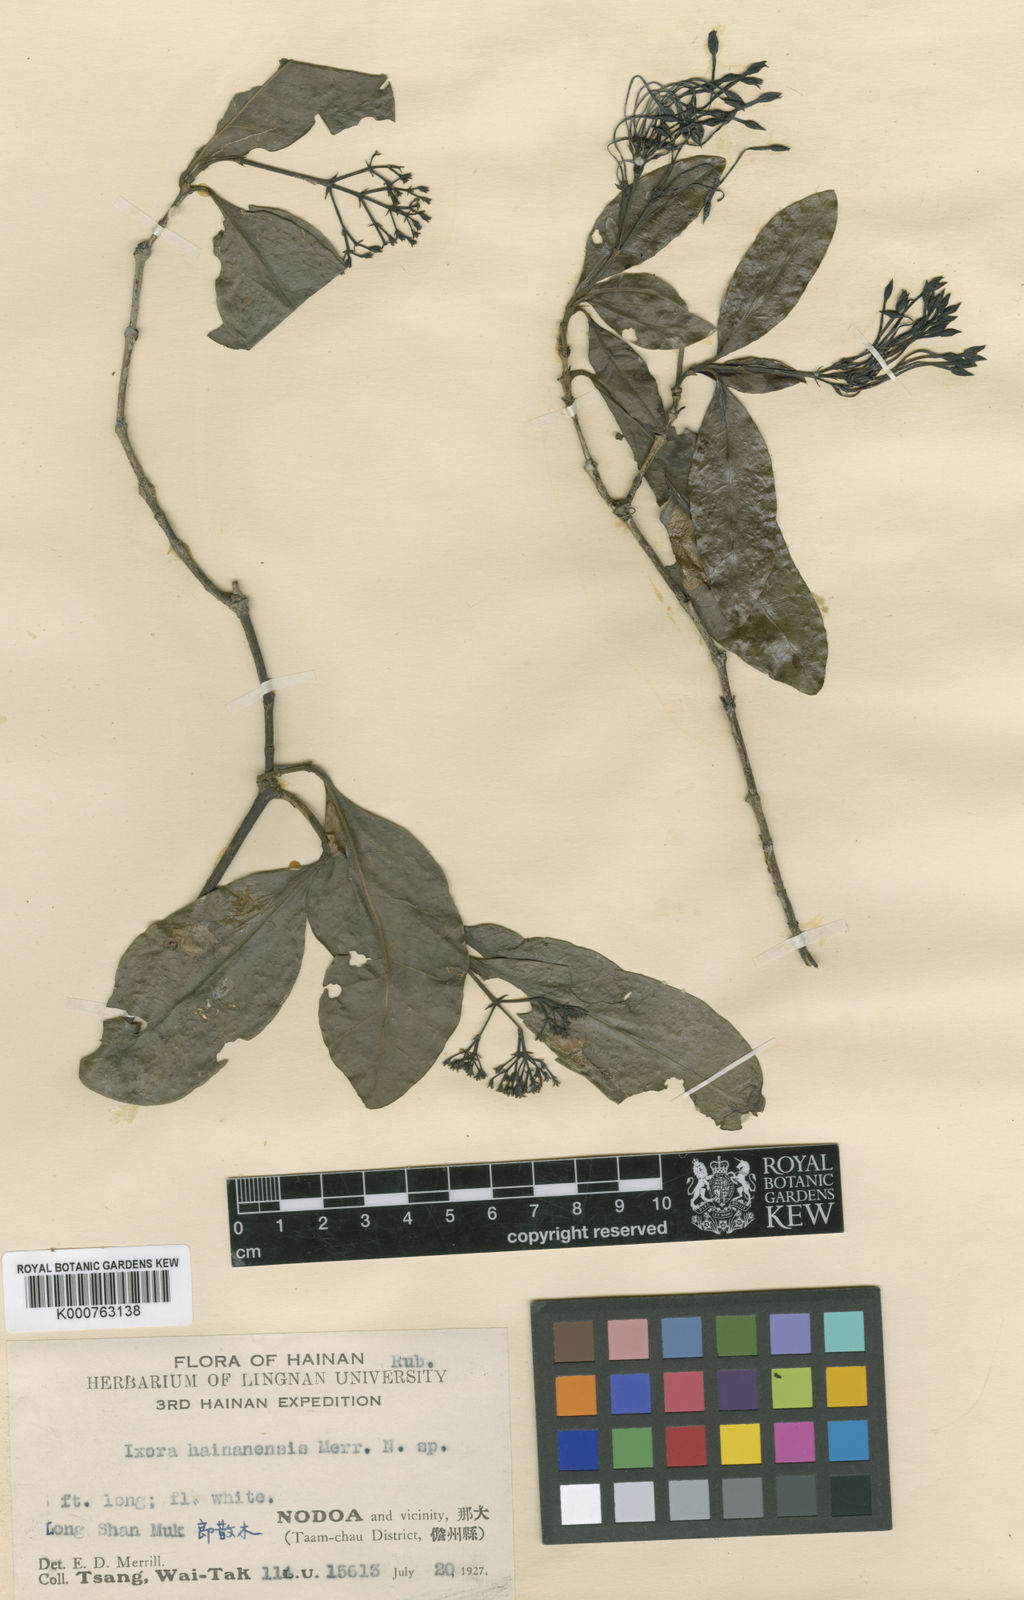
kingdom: Plantae
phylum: Tracheophyta
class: Magnoliopsida
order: Gentianales
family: Rubiaceae
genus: Ixora
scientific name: Ixora hainanensis
